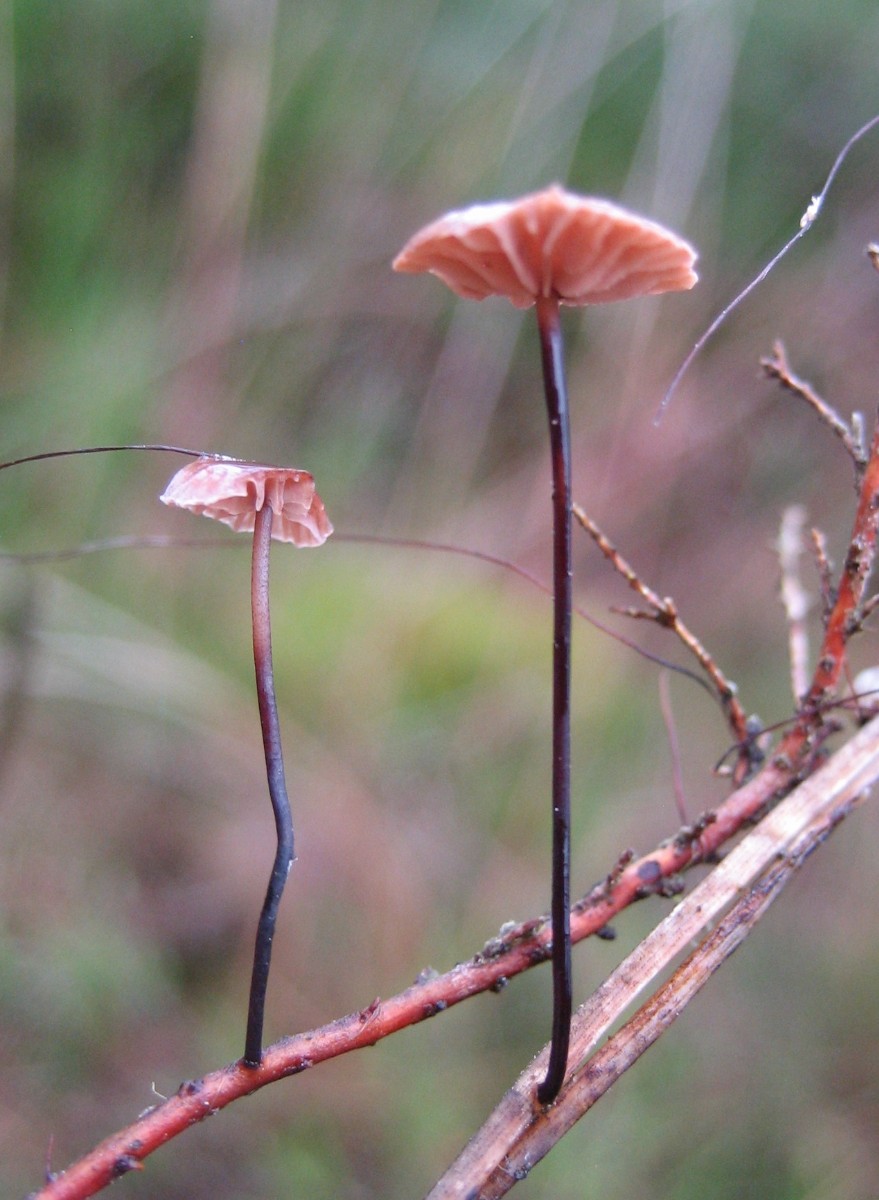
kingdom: Fungi
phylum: Basidiomycota
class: Agaricomycetes
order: Agaricales
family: Omphalotaceae
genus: Gymnopus
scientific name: Gymnopus androsaceus
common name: trådstokket fladhat
